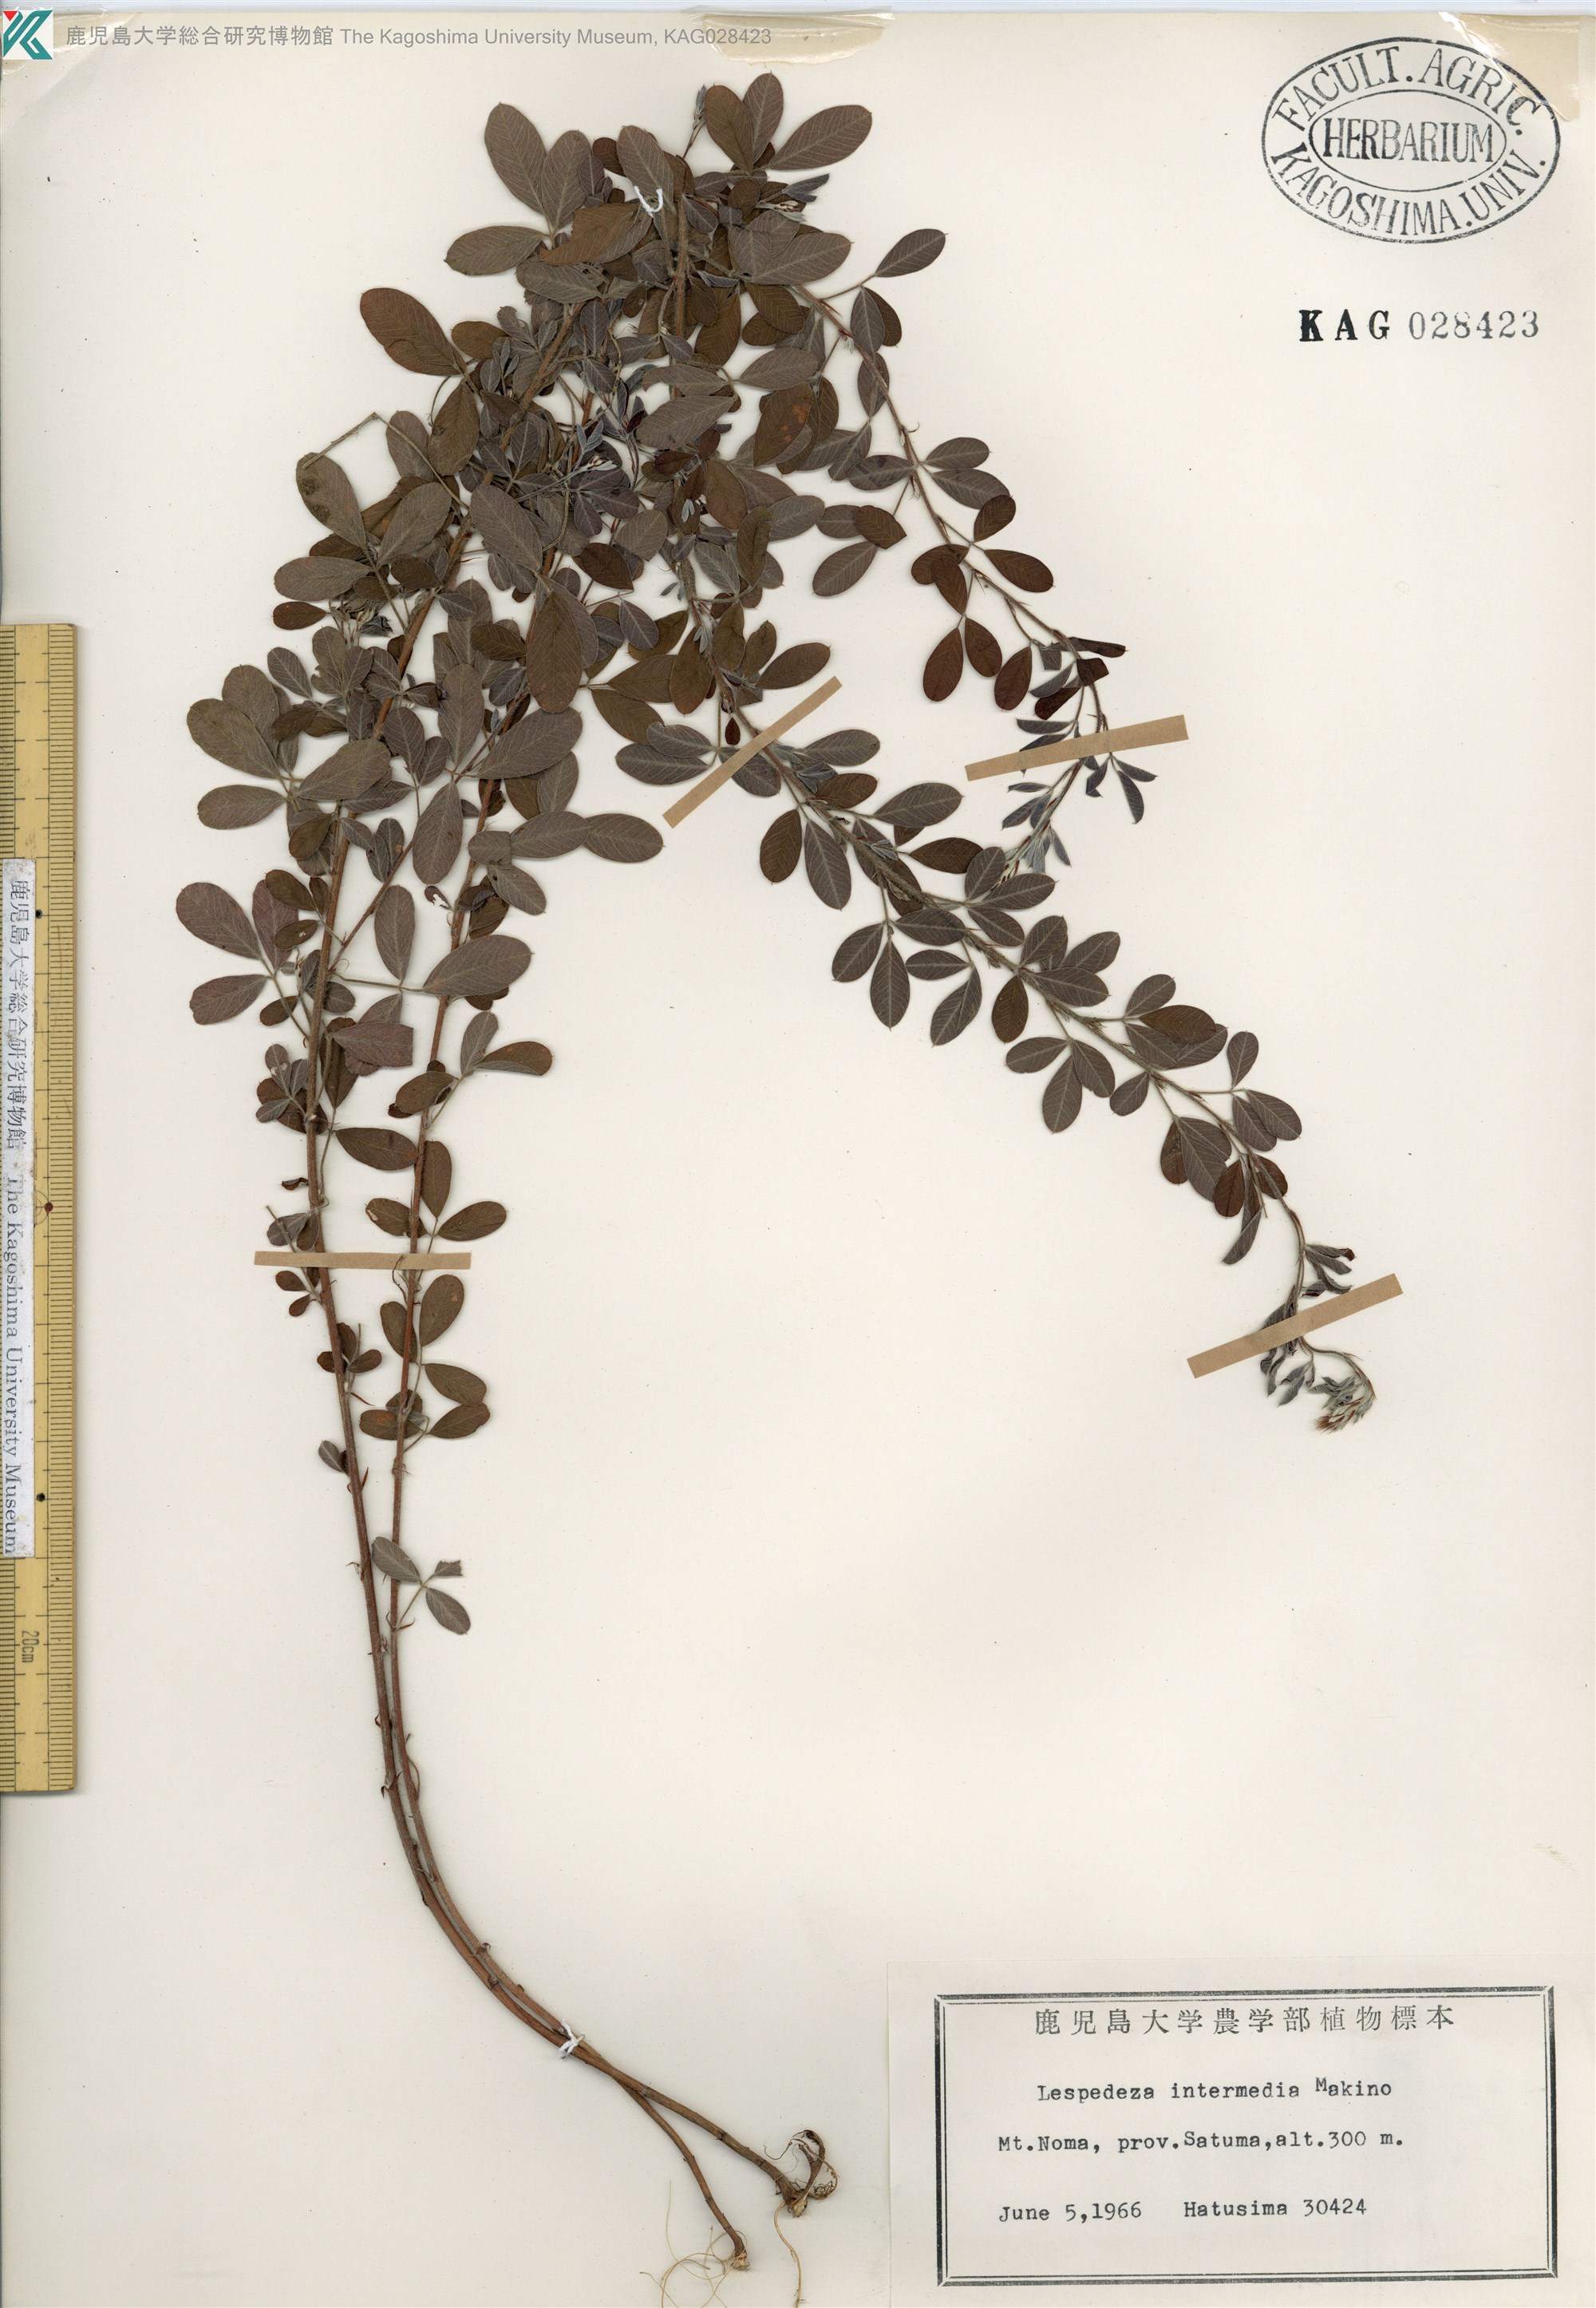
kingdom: Plantae
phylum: Tracheophyta
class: Magnoliopsida
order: Fabales
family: Fabaceae
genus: Lespedeza
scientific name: Lespedeza intermixta
